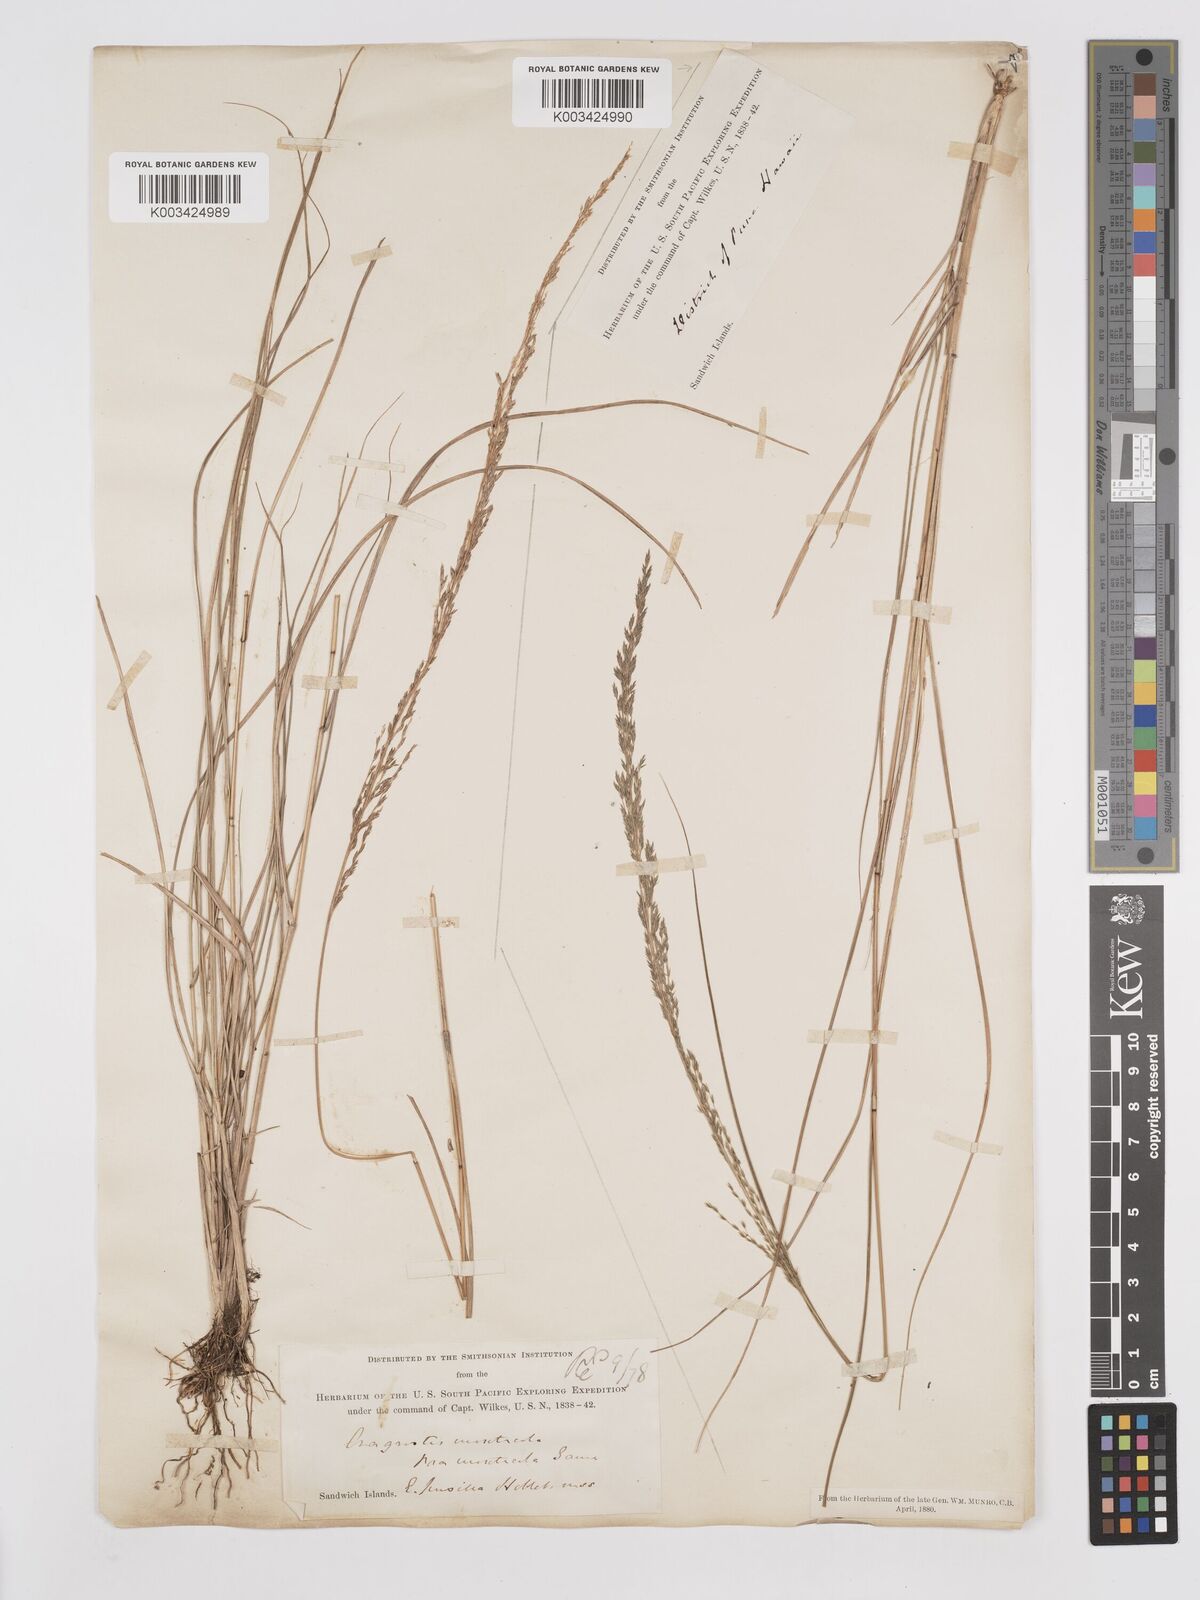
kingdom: Plantae
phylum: Tracheophyta
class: Liliopsida
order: Poales
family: Poaceae
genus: Eragrostis
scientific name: Eragrostis leptophylla
